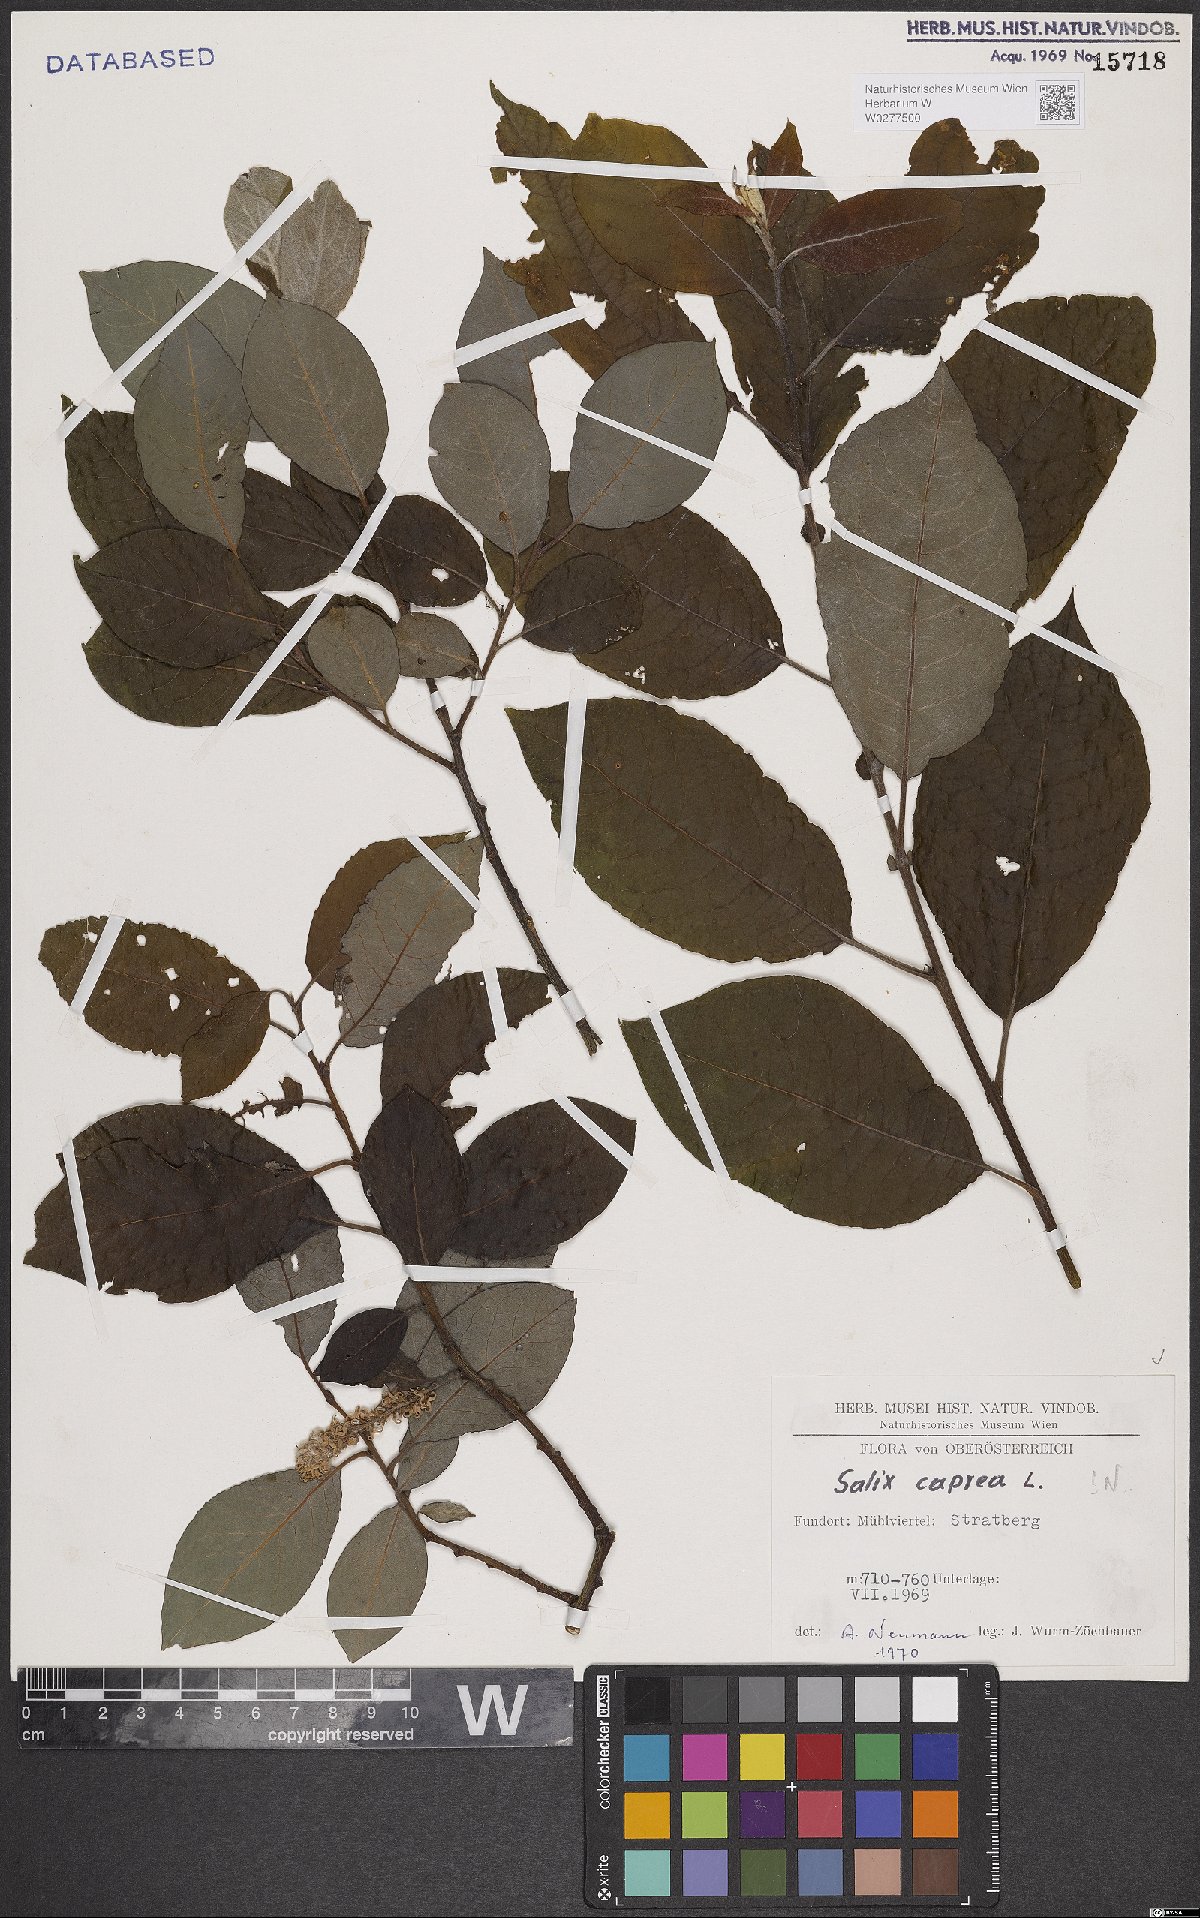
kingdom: Plantae
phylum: Tracheophyta
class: Magnoliopsida
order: Malpighiales
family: Salicaceae
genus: Salix
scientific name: Salix caprea
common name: Goat willow
